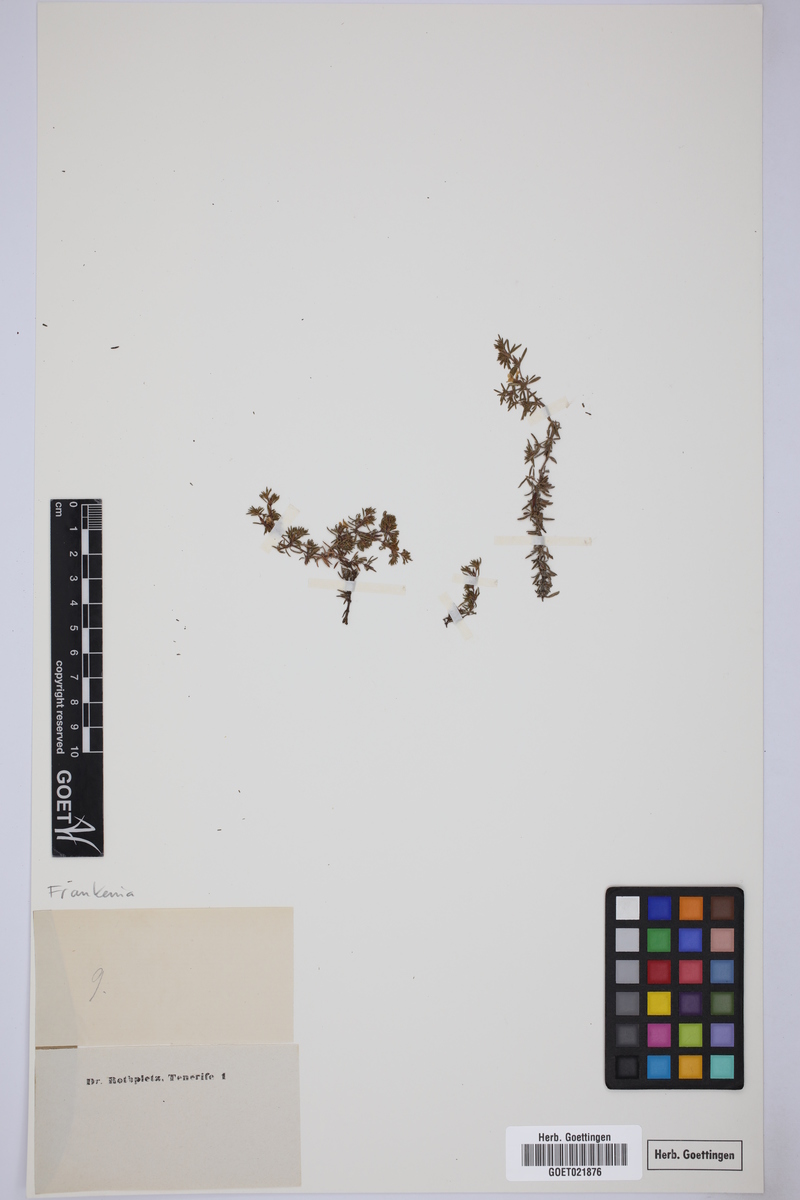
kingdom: Plantae
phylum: Tracheophyta
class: Magnoliopsida
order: Caryophyllales
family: Frankeniaceae
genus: Frankenia
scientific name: Frankenia
